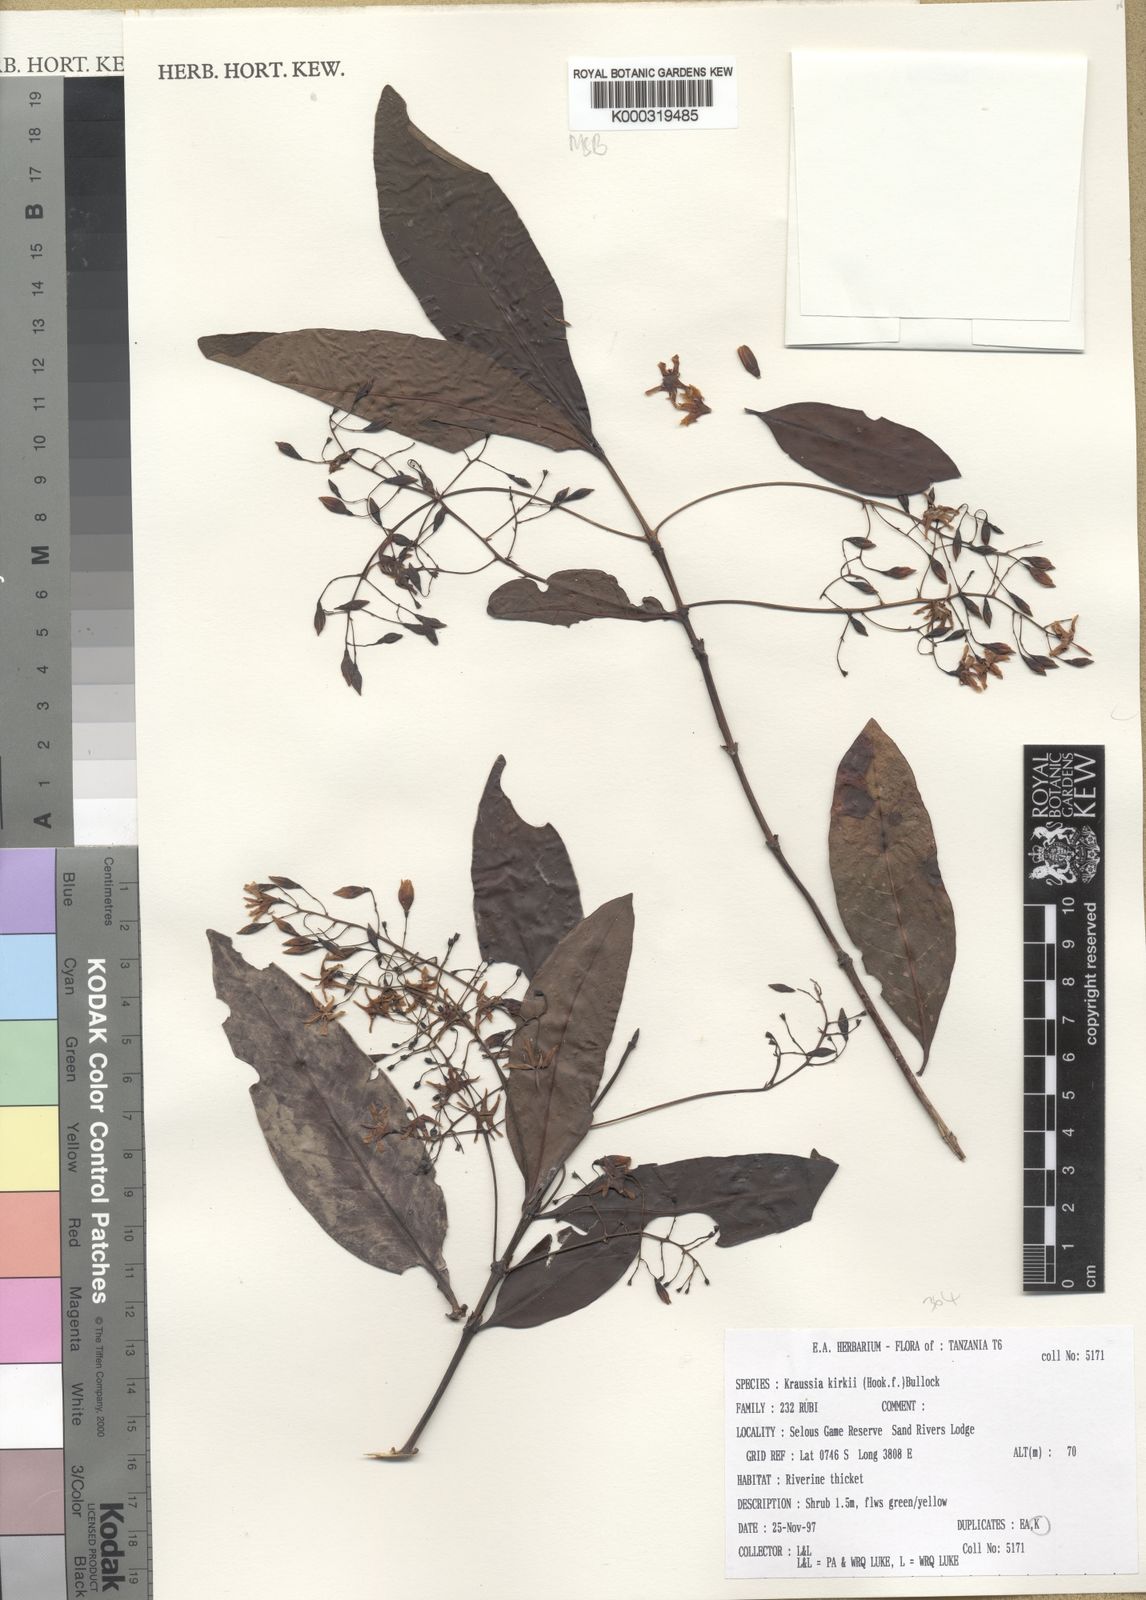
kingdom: Plantae
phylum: Tracheophyta
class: Magnoliopsida
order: Gentianales
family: Rubiaceae
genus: Kraussia
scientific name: Kraussia kirkii
